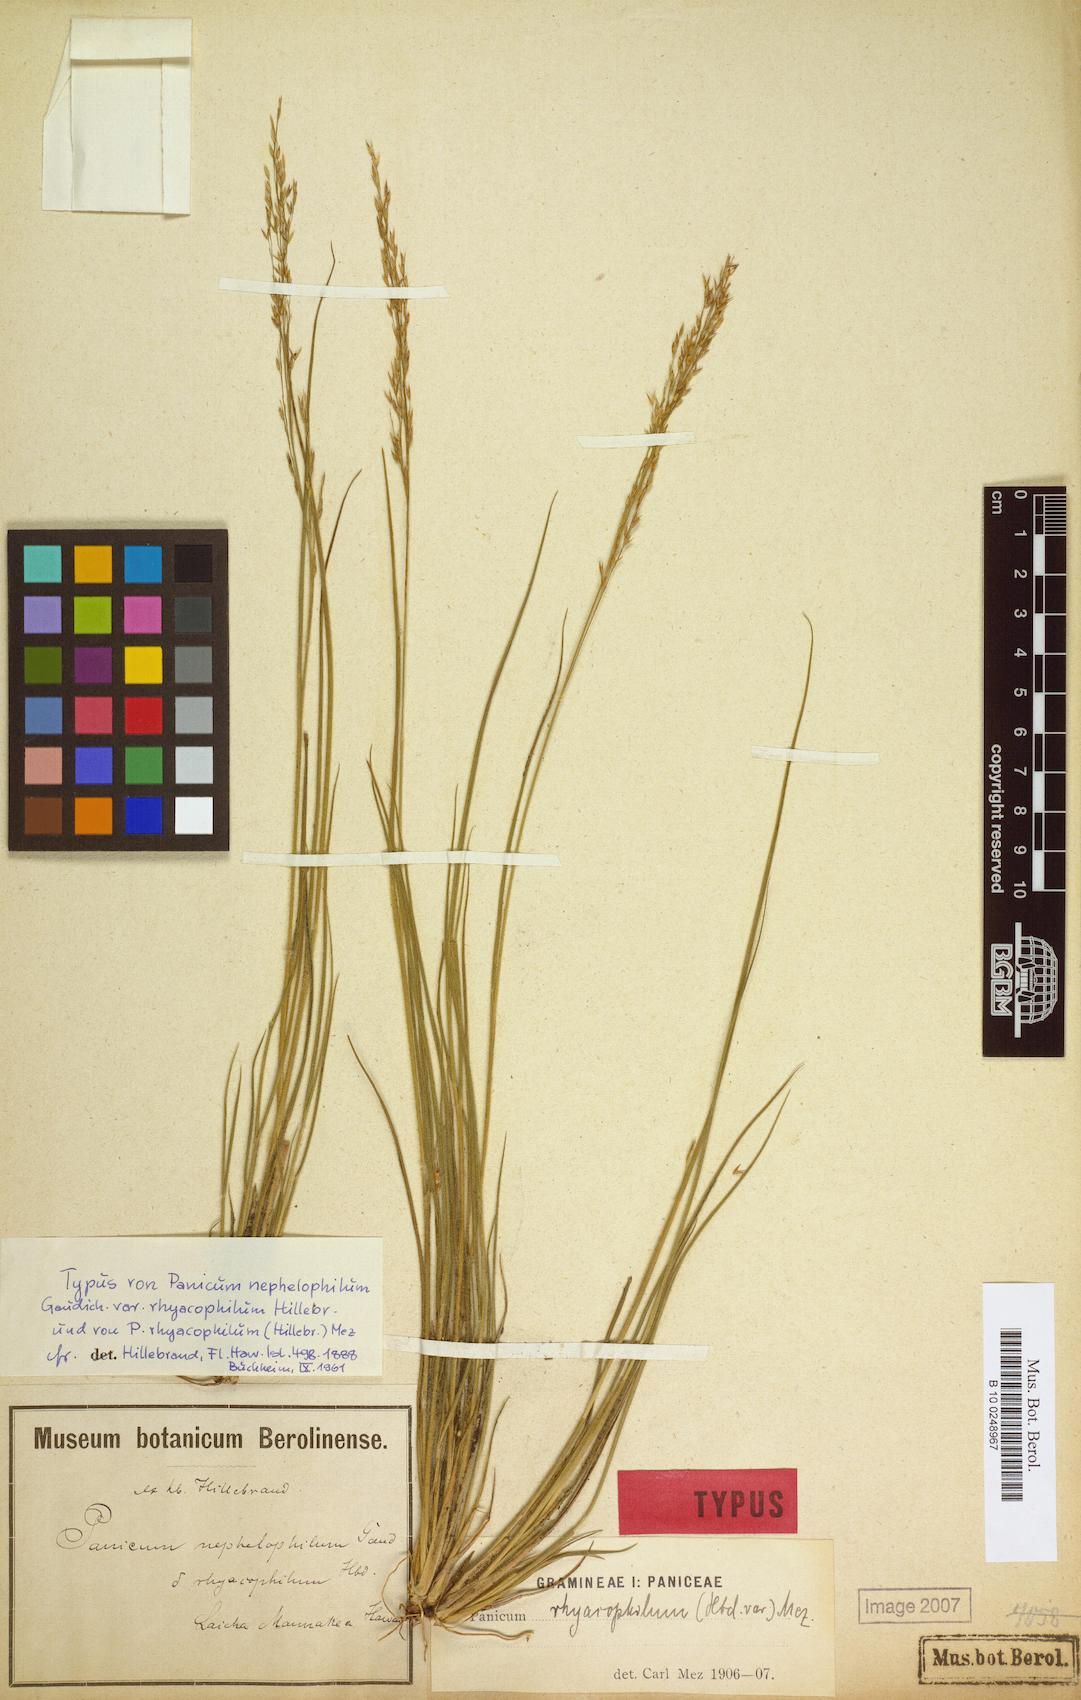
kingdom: Plantae
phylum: Tracheophyta
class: Liliopsida
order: Poales
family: Poaceae
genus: Panicum
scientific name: Panicum tenuifolium
